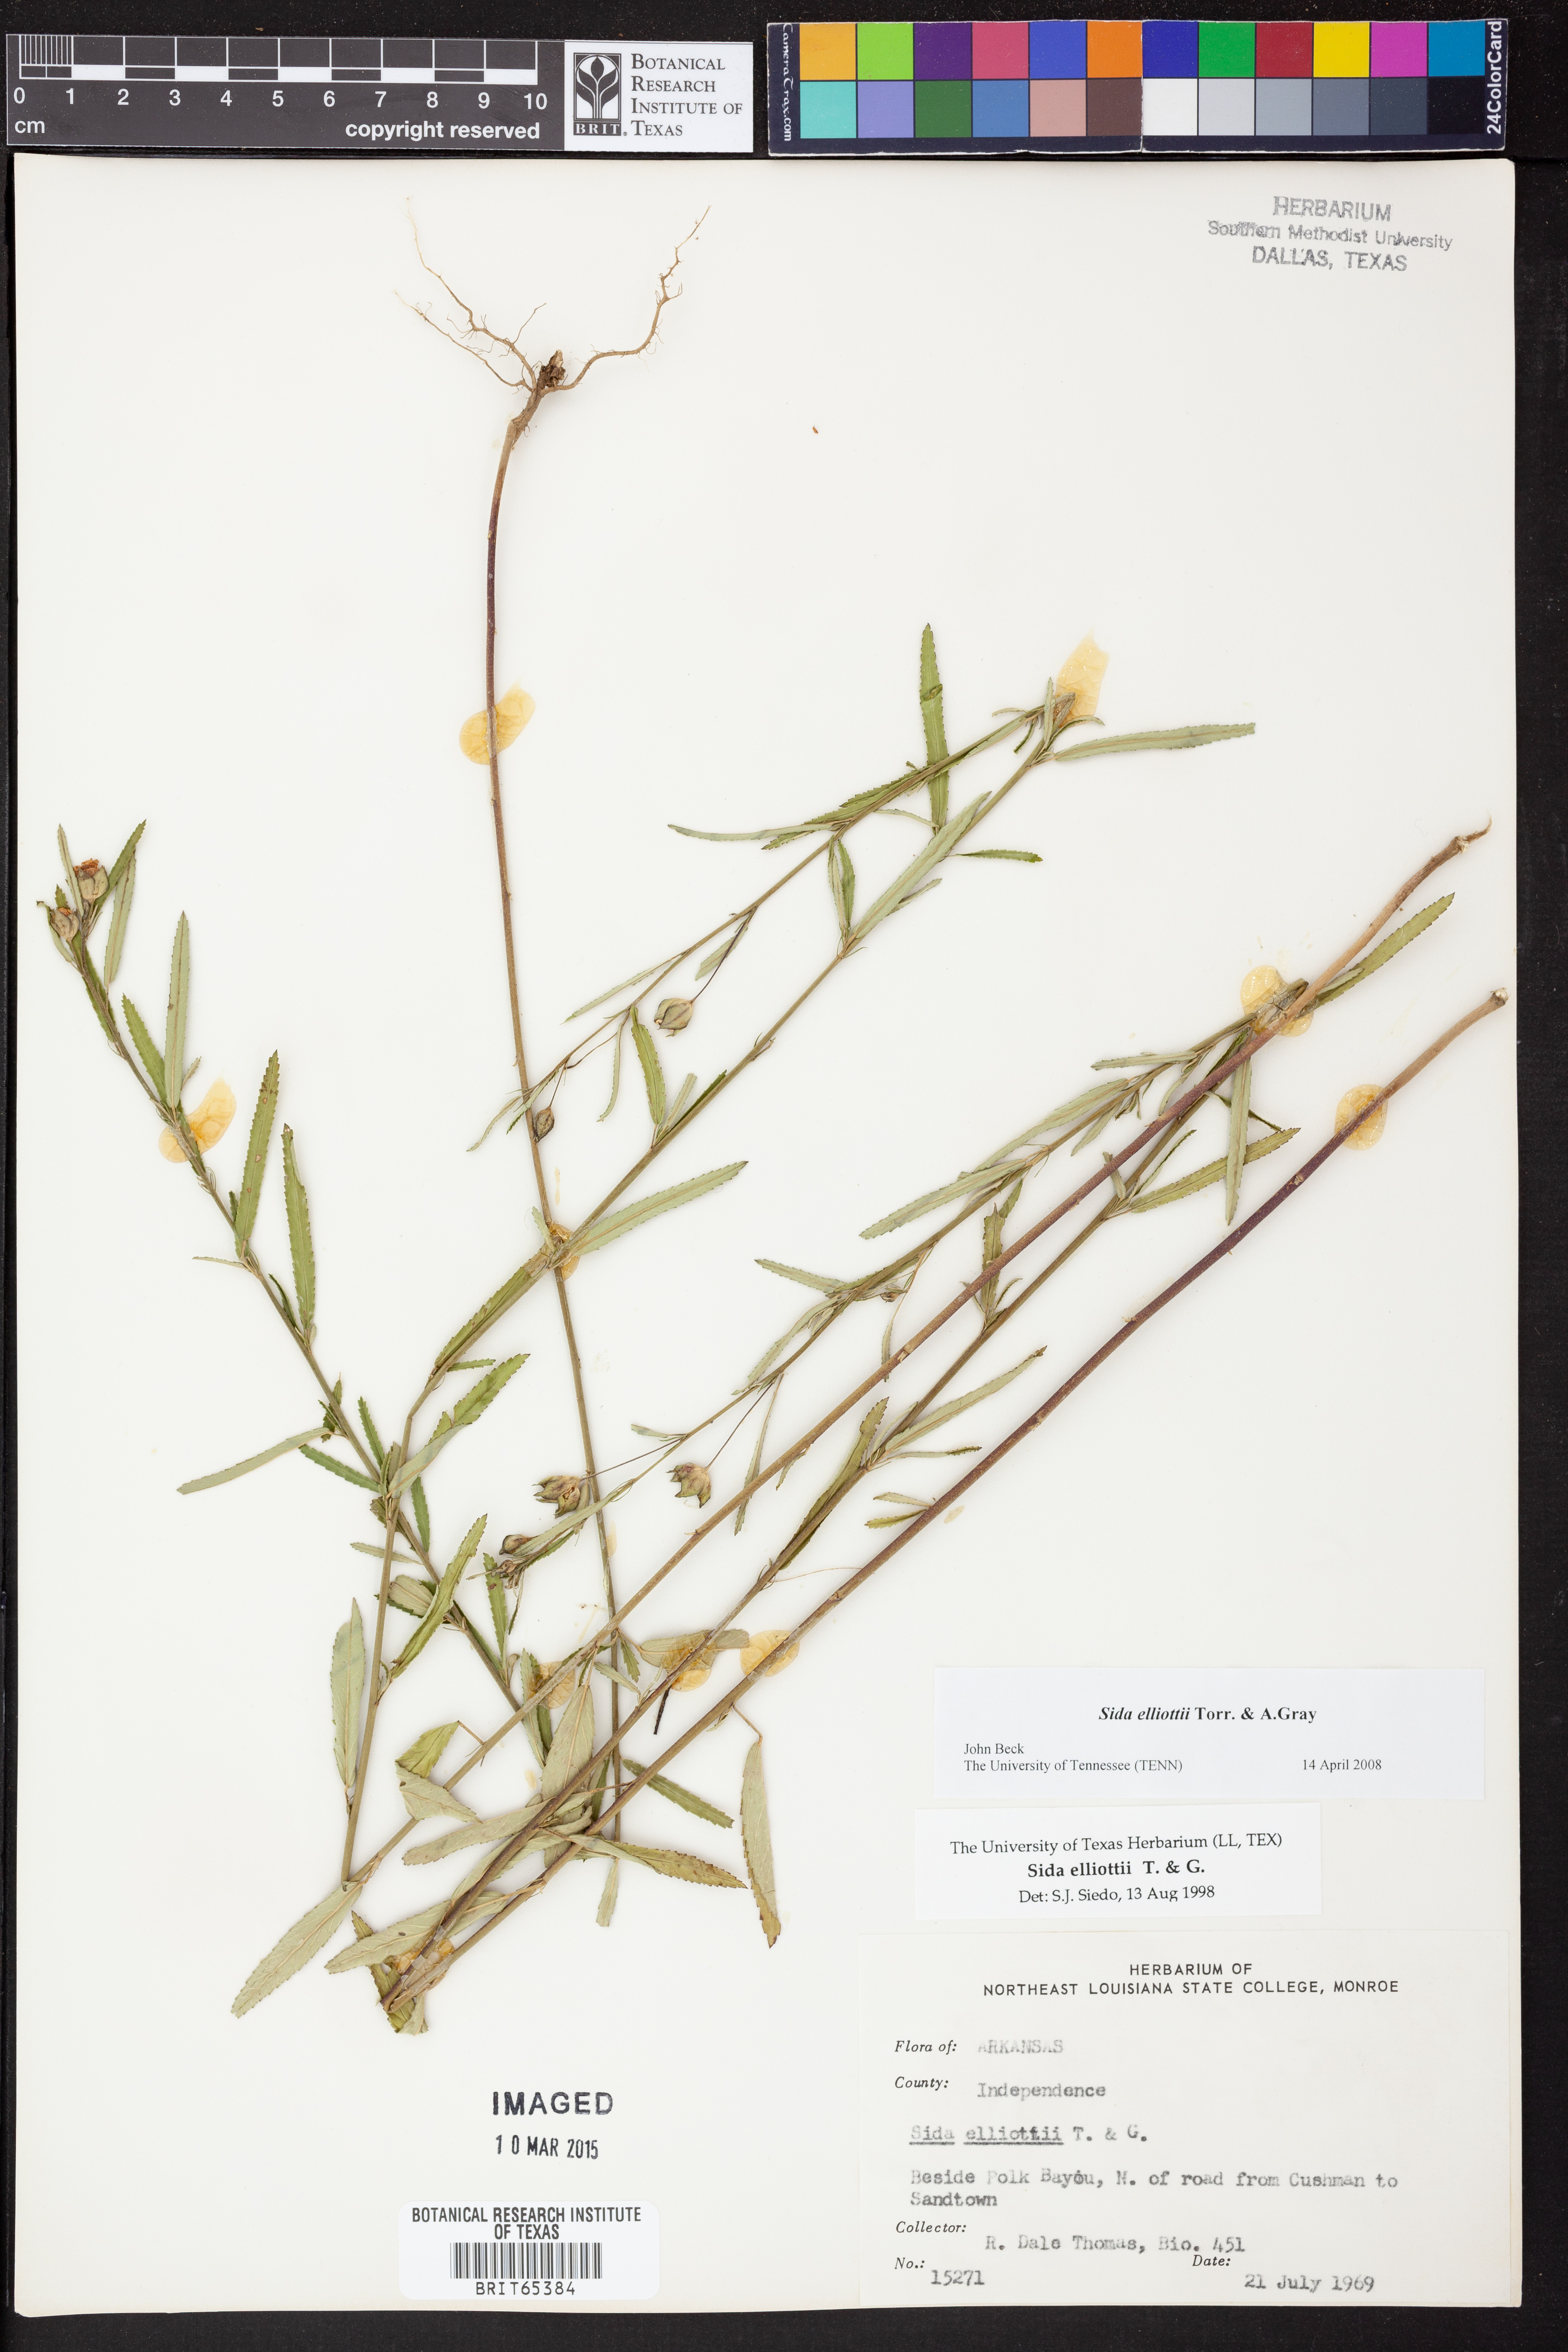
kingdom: Plantae
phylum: Tracheophyta
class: Magnoliopsida
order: Malvales
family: Malvaceae
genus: Sida
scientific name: Sida
